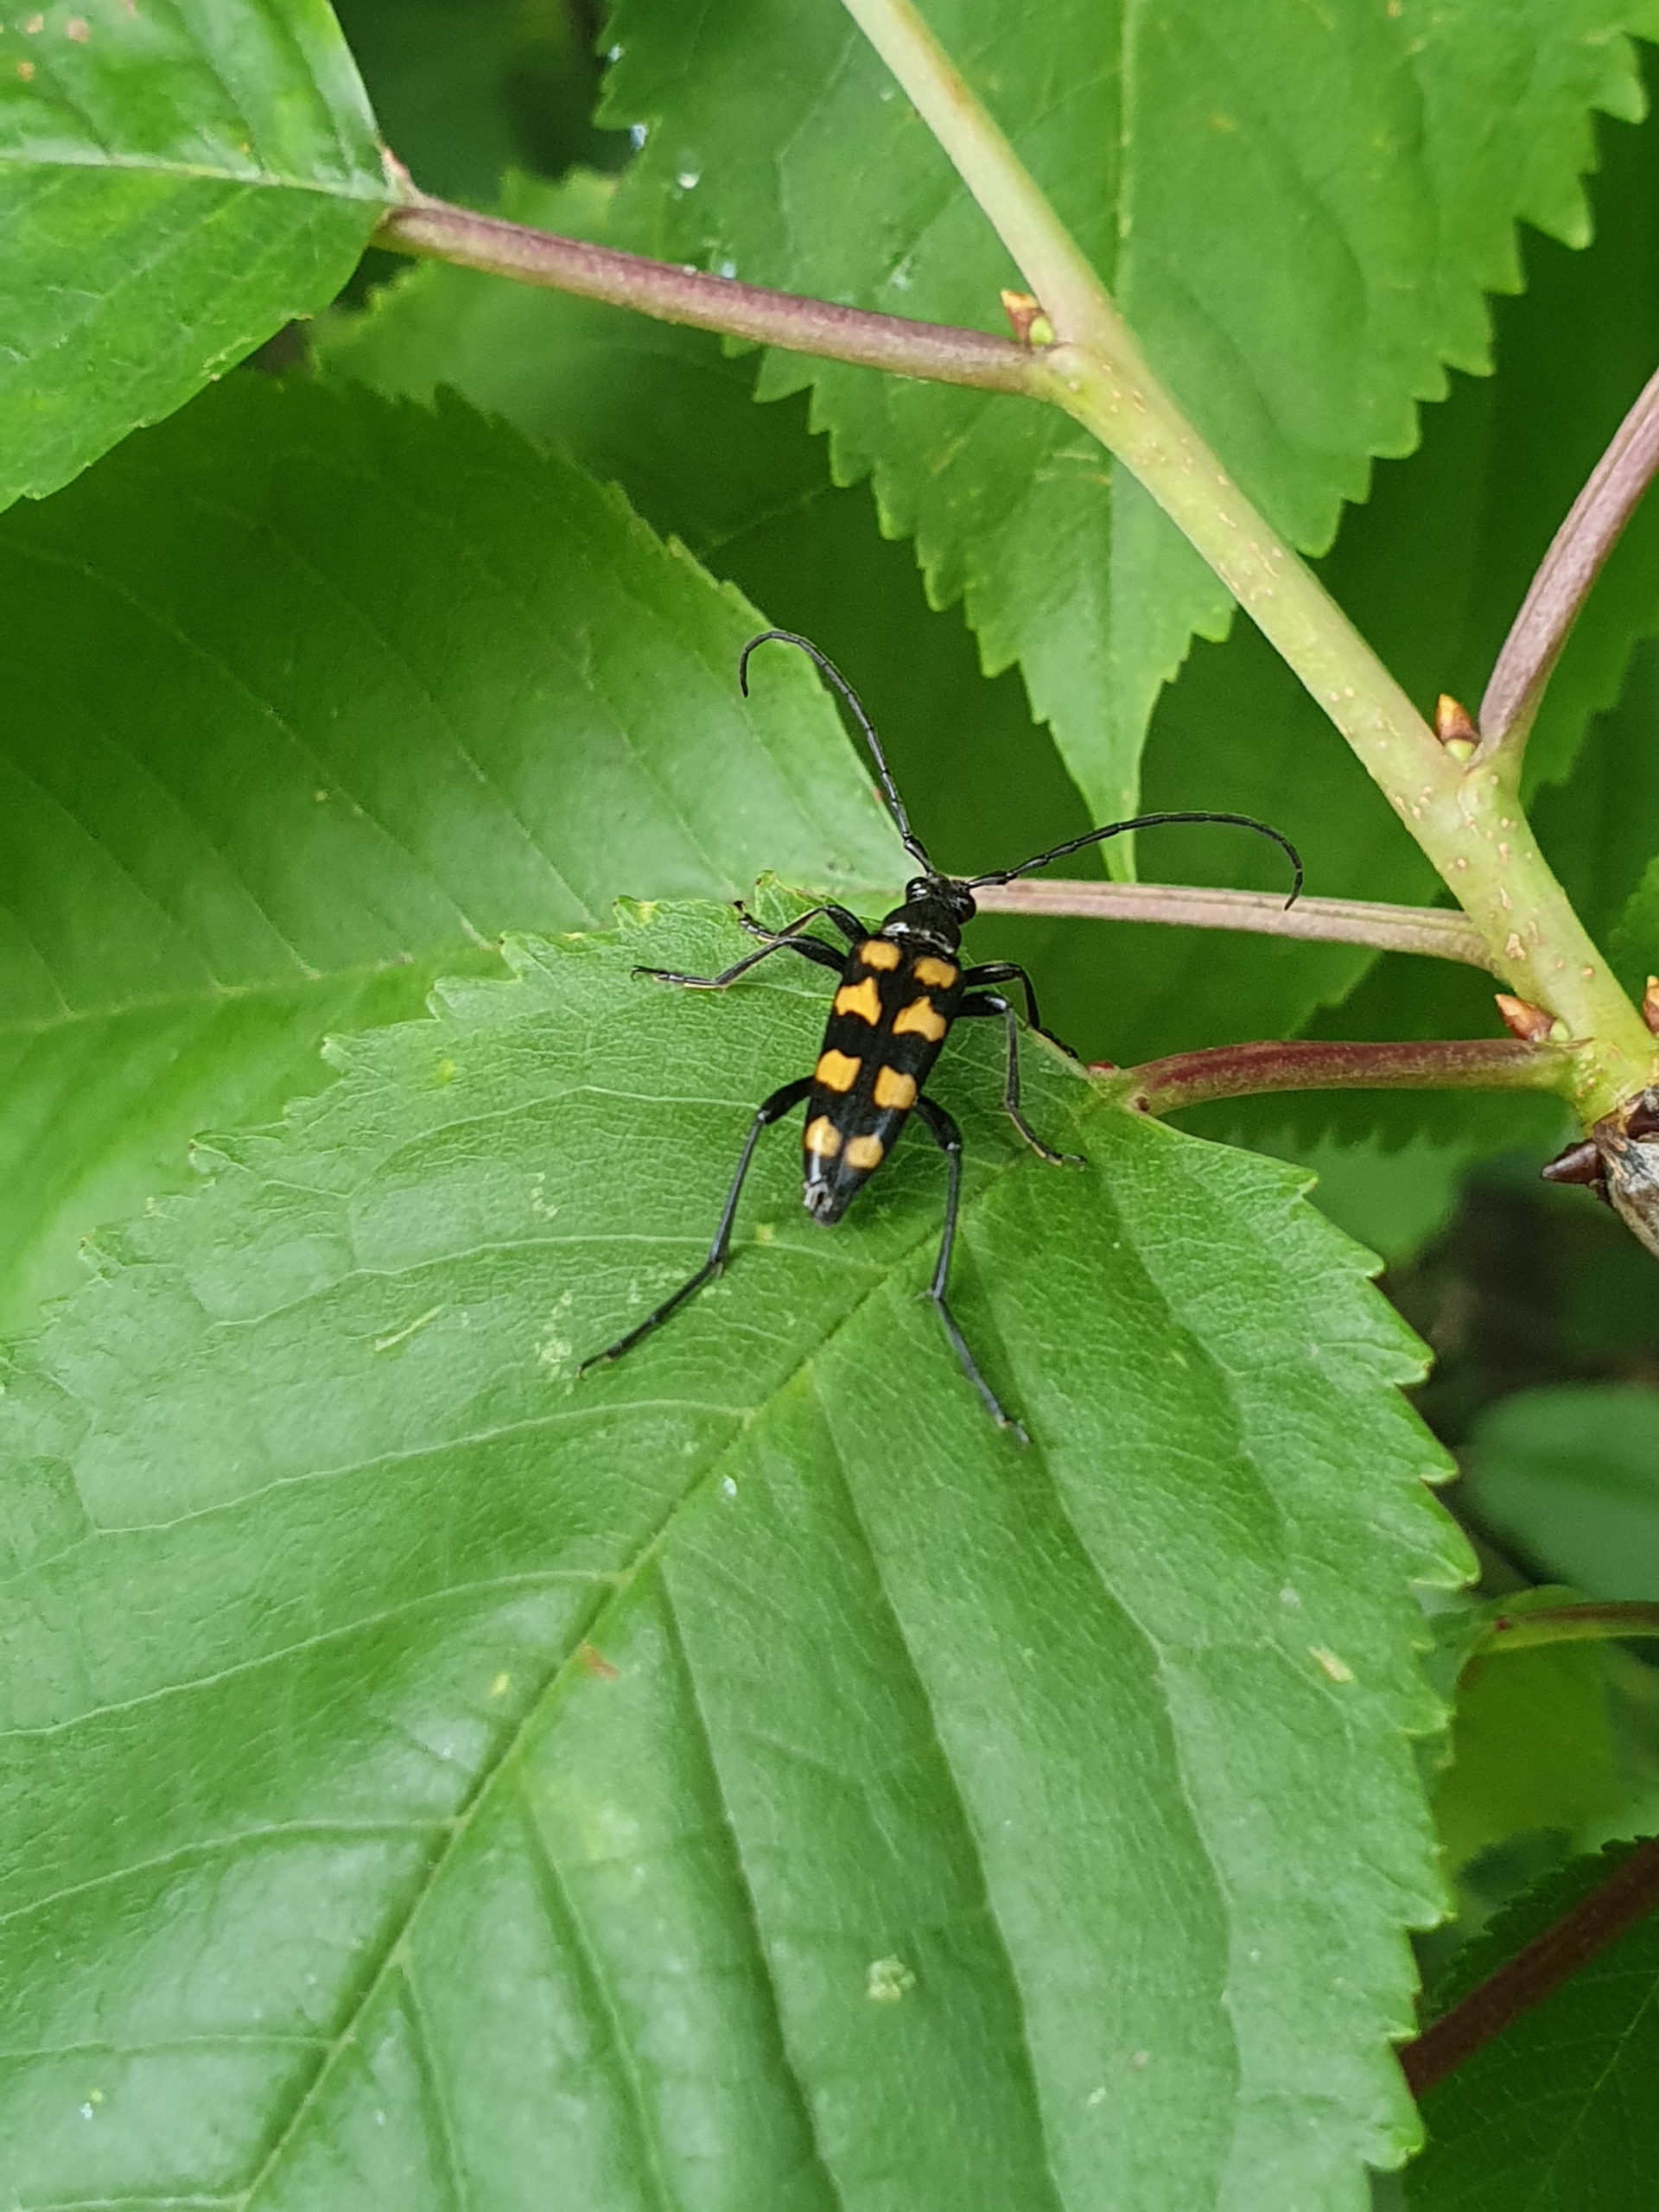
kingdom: Animalia
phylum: Arthropoda
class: Insecta
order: Coleoptera
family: Cerambycidae
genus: Leptura
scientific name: Leptura quadrifasciata
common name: Firebåndet blomsterbuk
